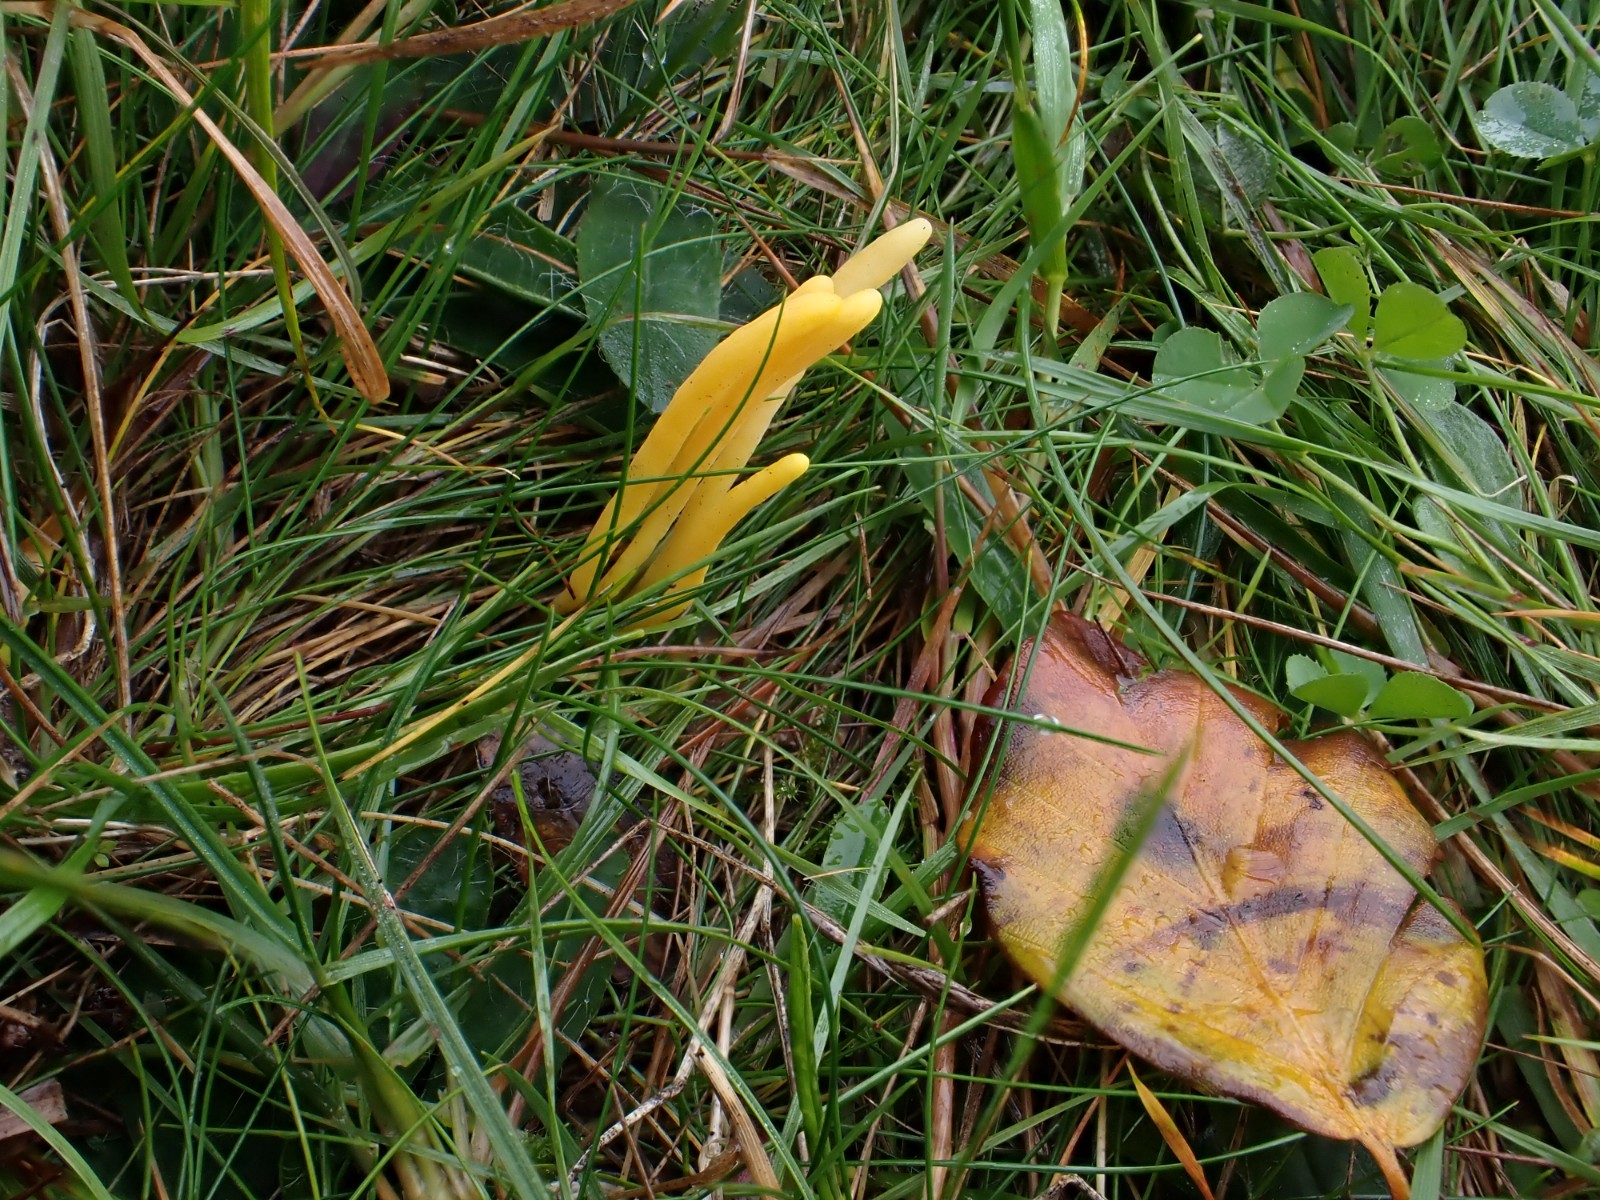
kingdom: Fungi
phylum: Basidiomycota
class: Agaricomycetes
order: Agaricales
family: Clavariaceae
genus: Clavulinopsis
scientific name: Clavulinopsis helvola
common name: orangegul køllesvamp
